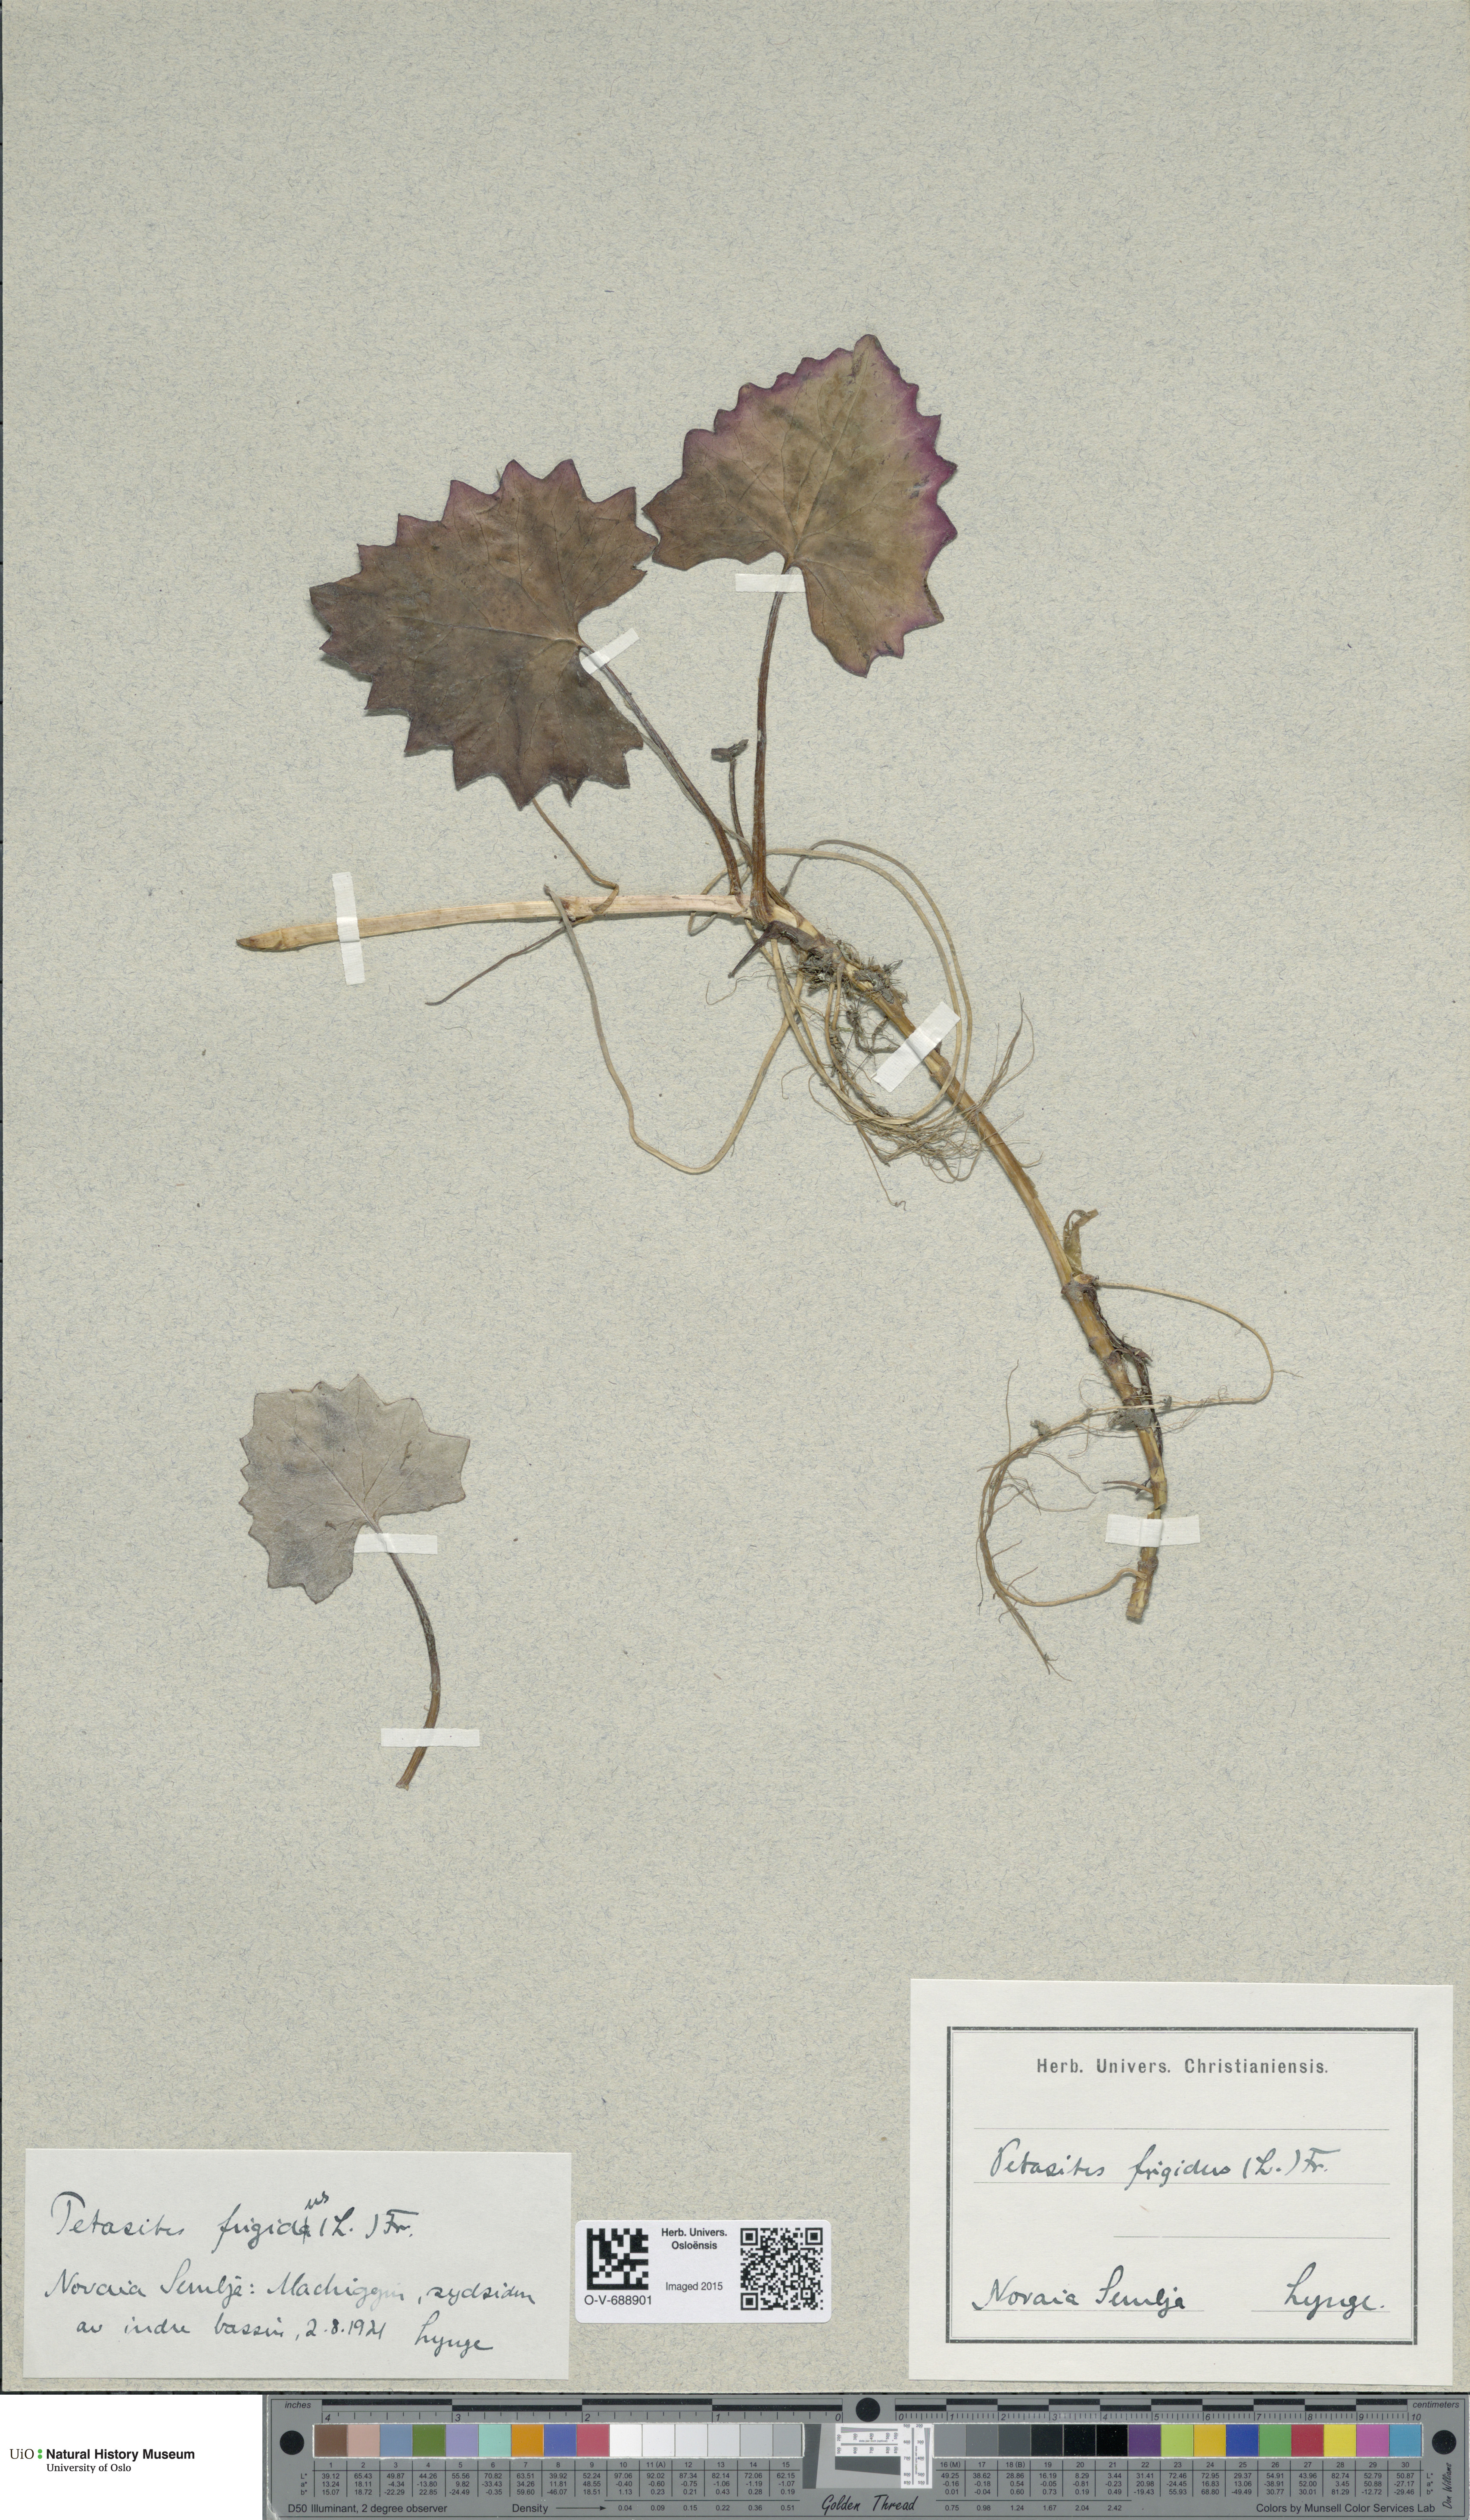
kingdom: Plantae
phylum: Tracheophyta
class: Magnoliopsida
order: Asterales
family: Asteraceae
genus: Petasites
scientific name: Petasites frigidus
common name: Arctic butterbur
